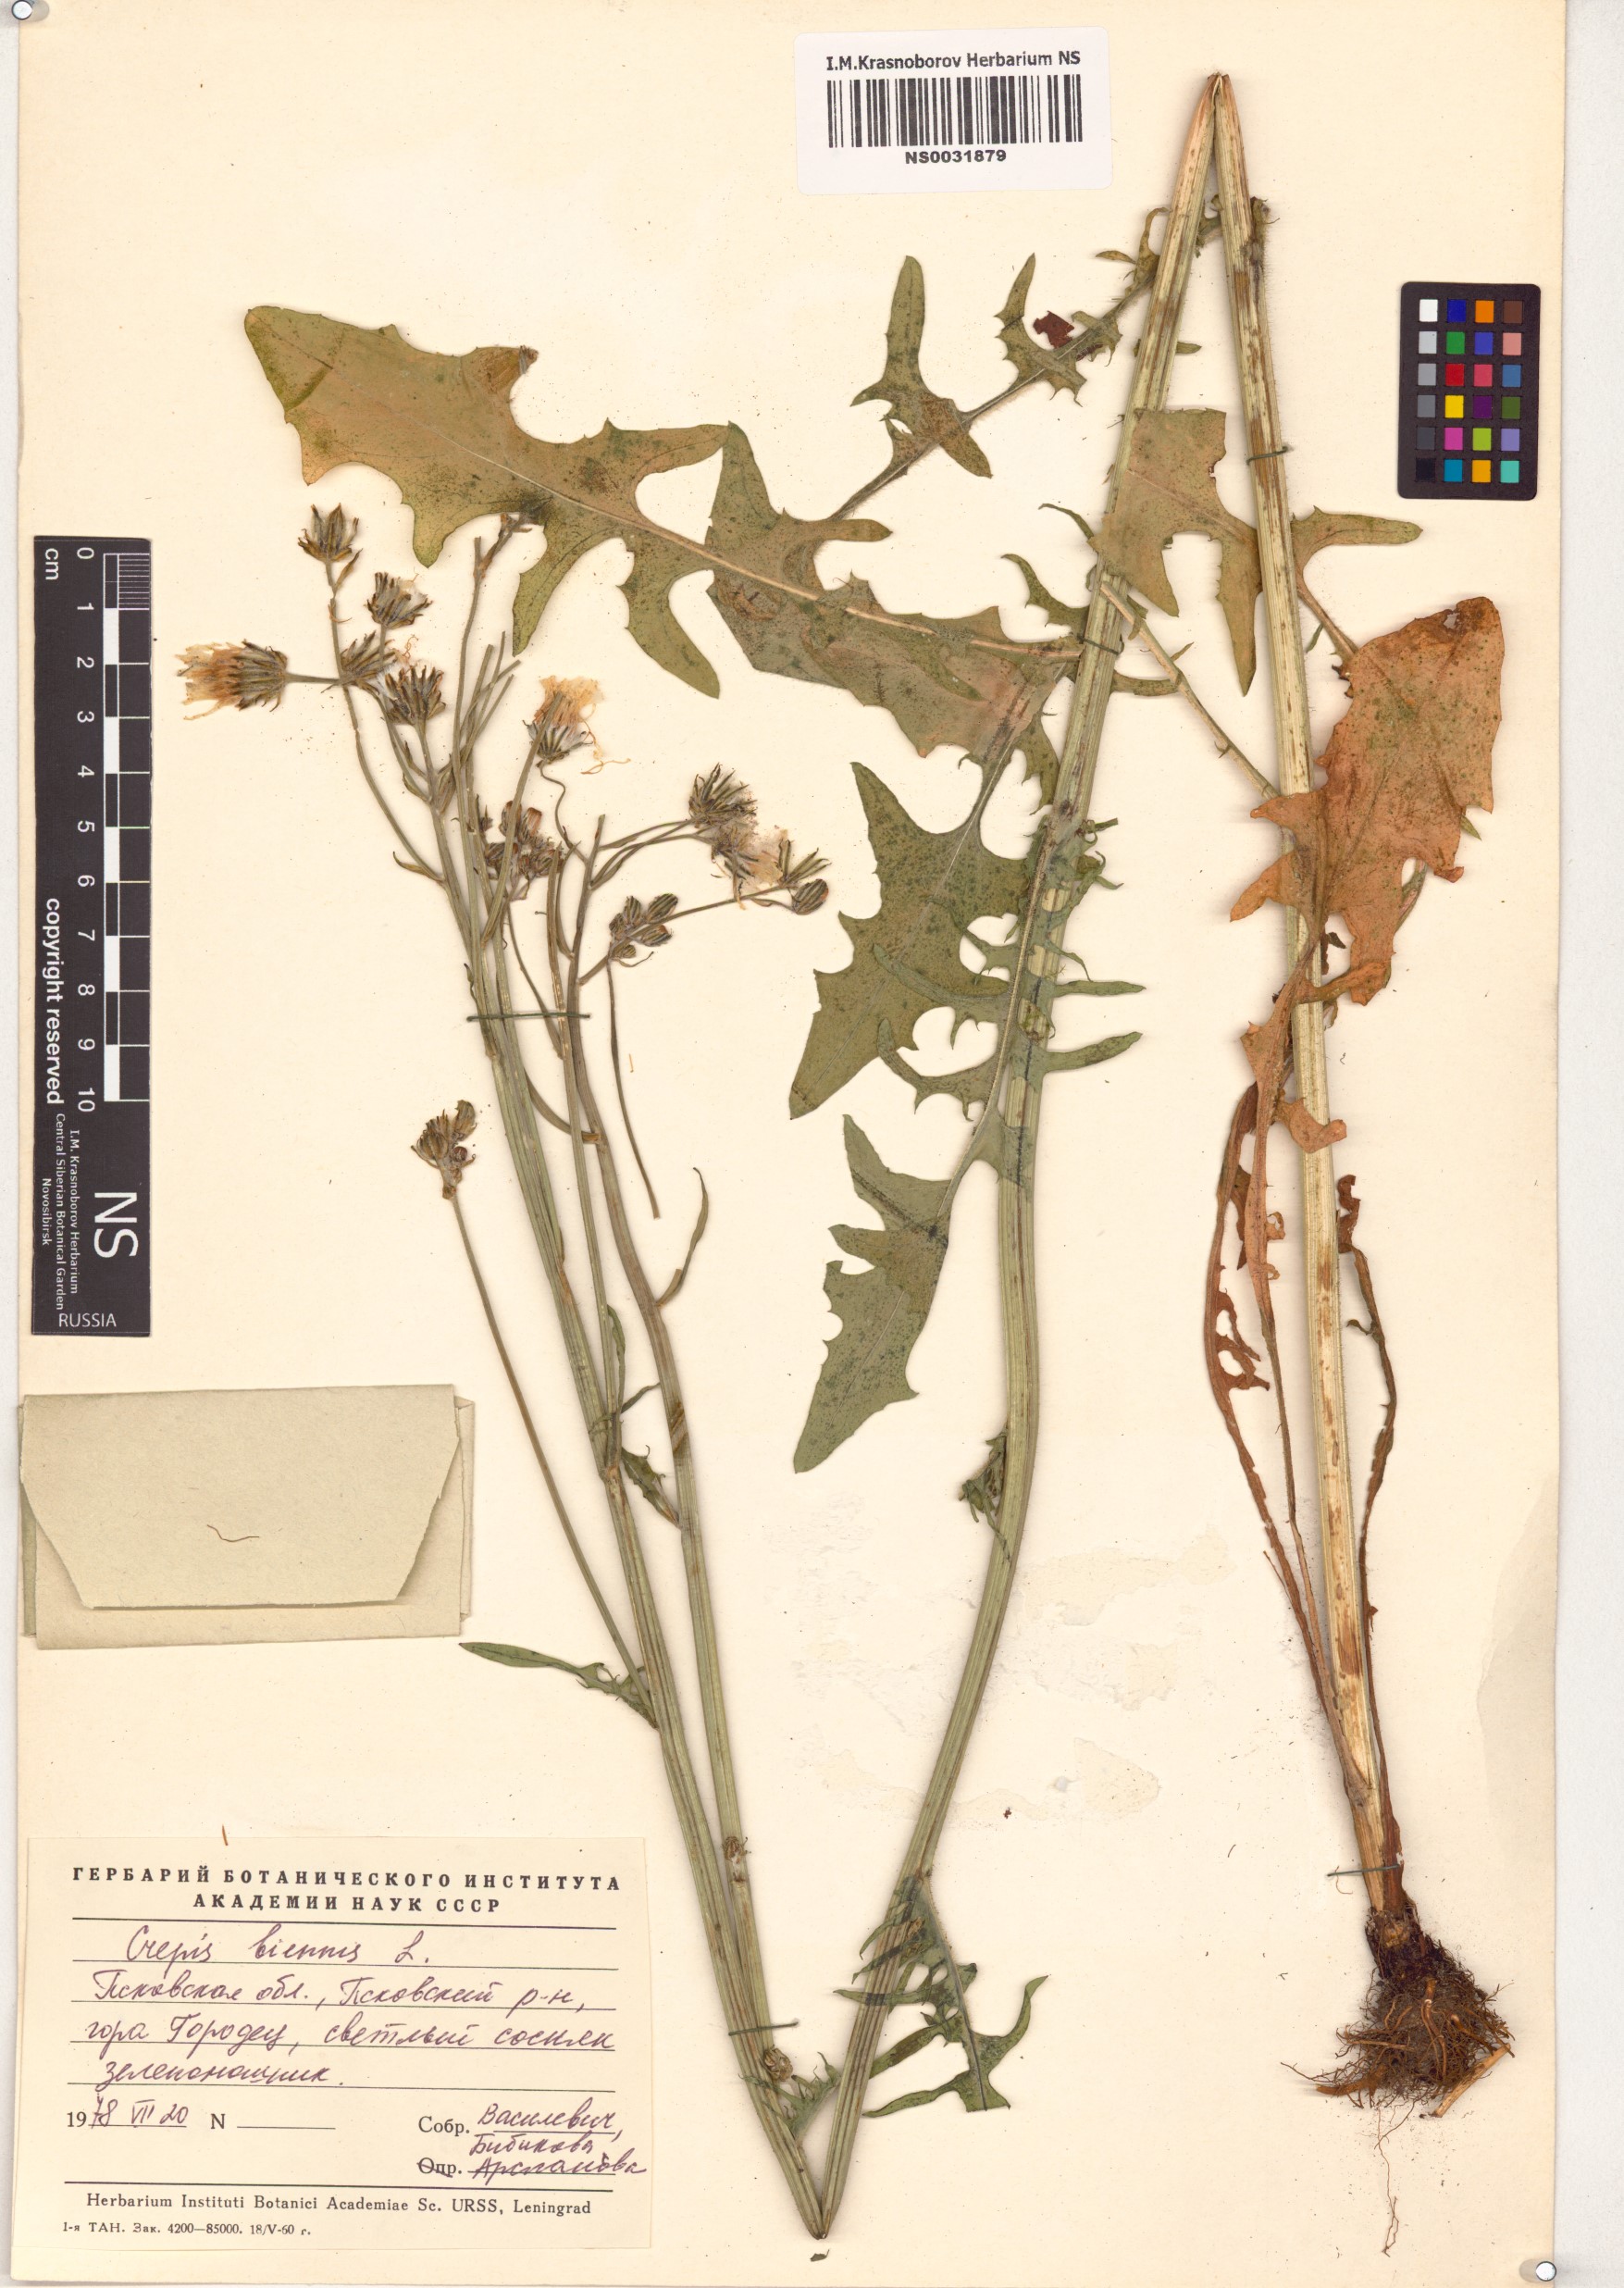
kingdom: Plantae
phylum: Tracheophyta
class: Magnoliopsida
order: Asterales
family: Asteraceae
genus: Crepis
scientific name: Crepis biennis
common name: Rough hawk's-beard
